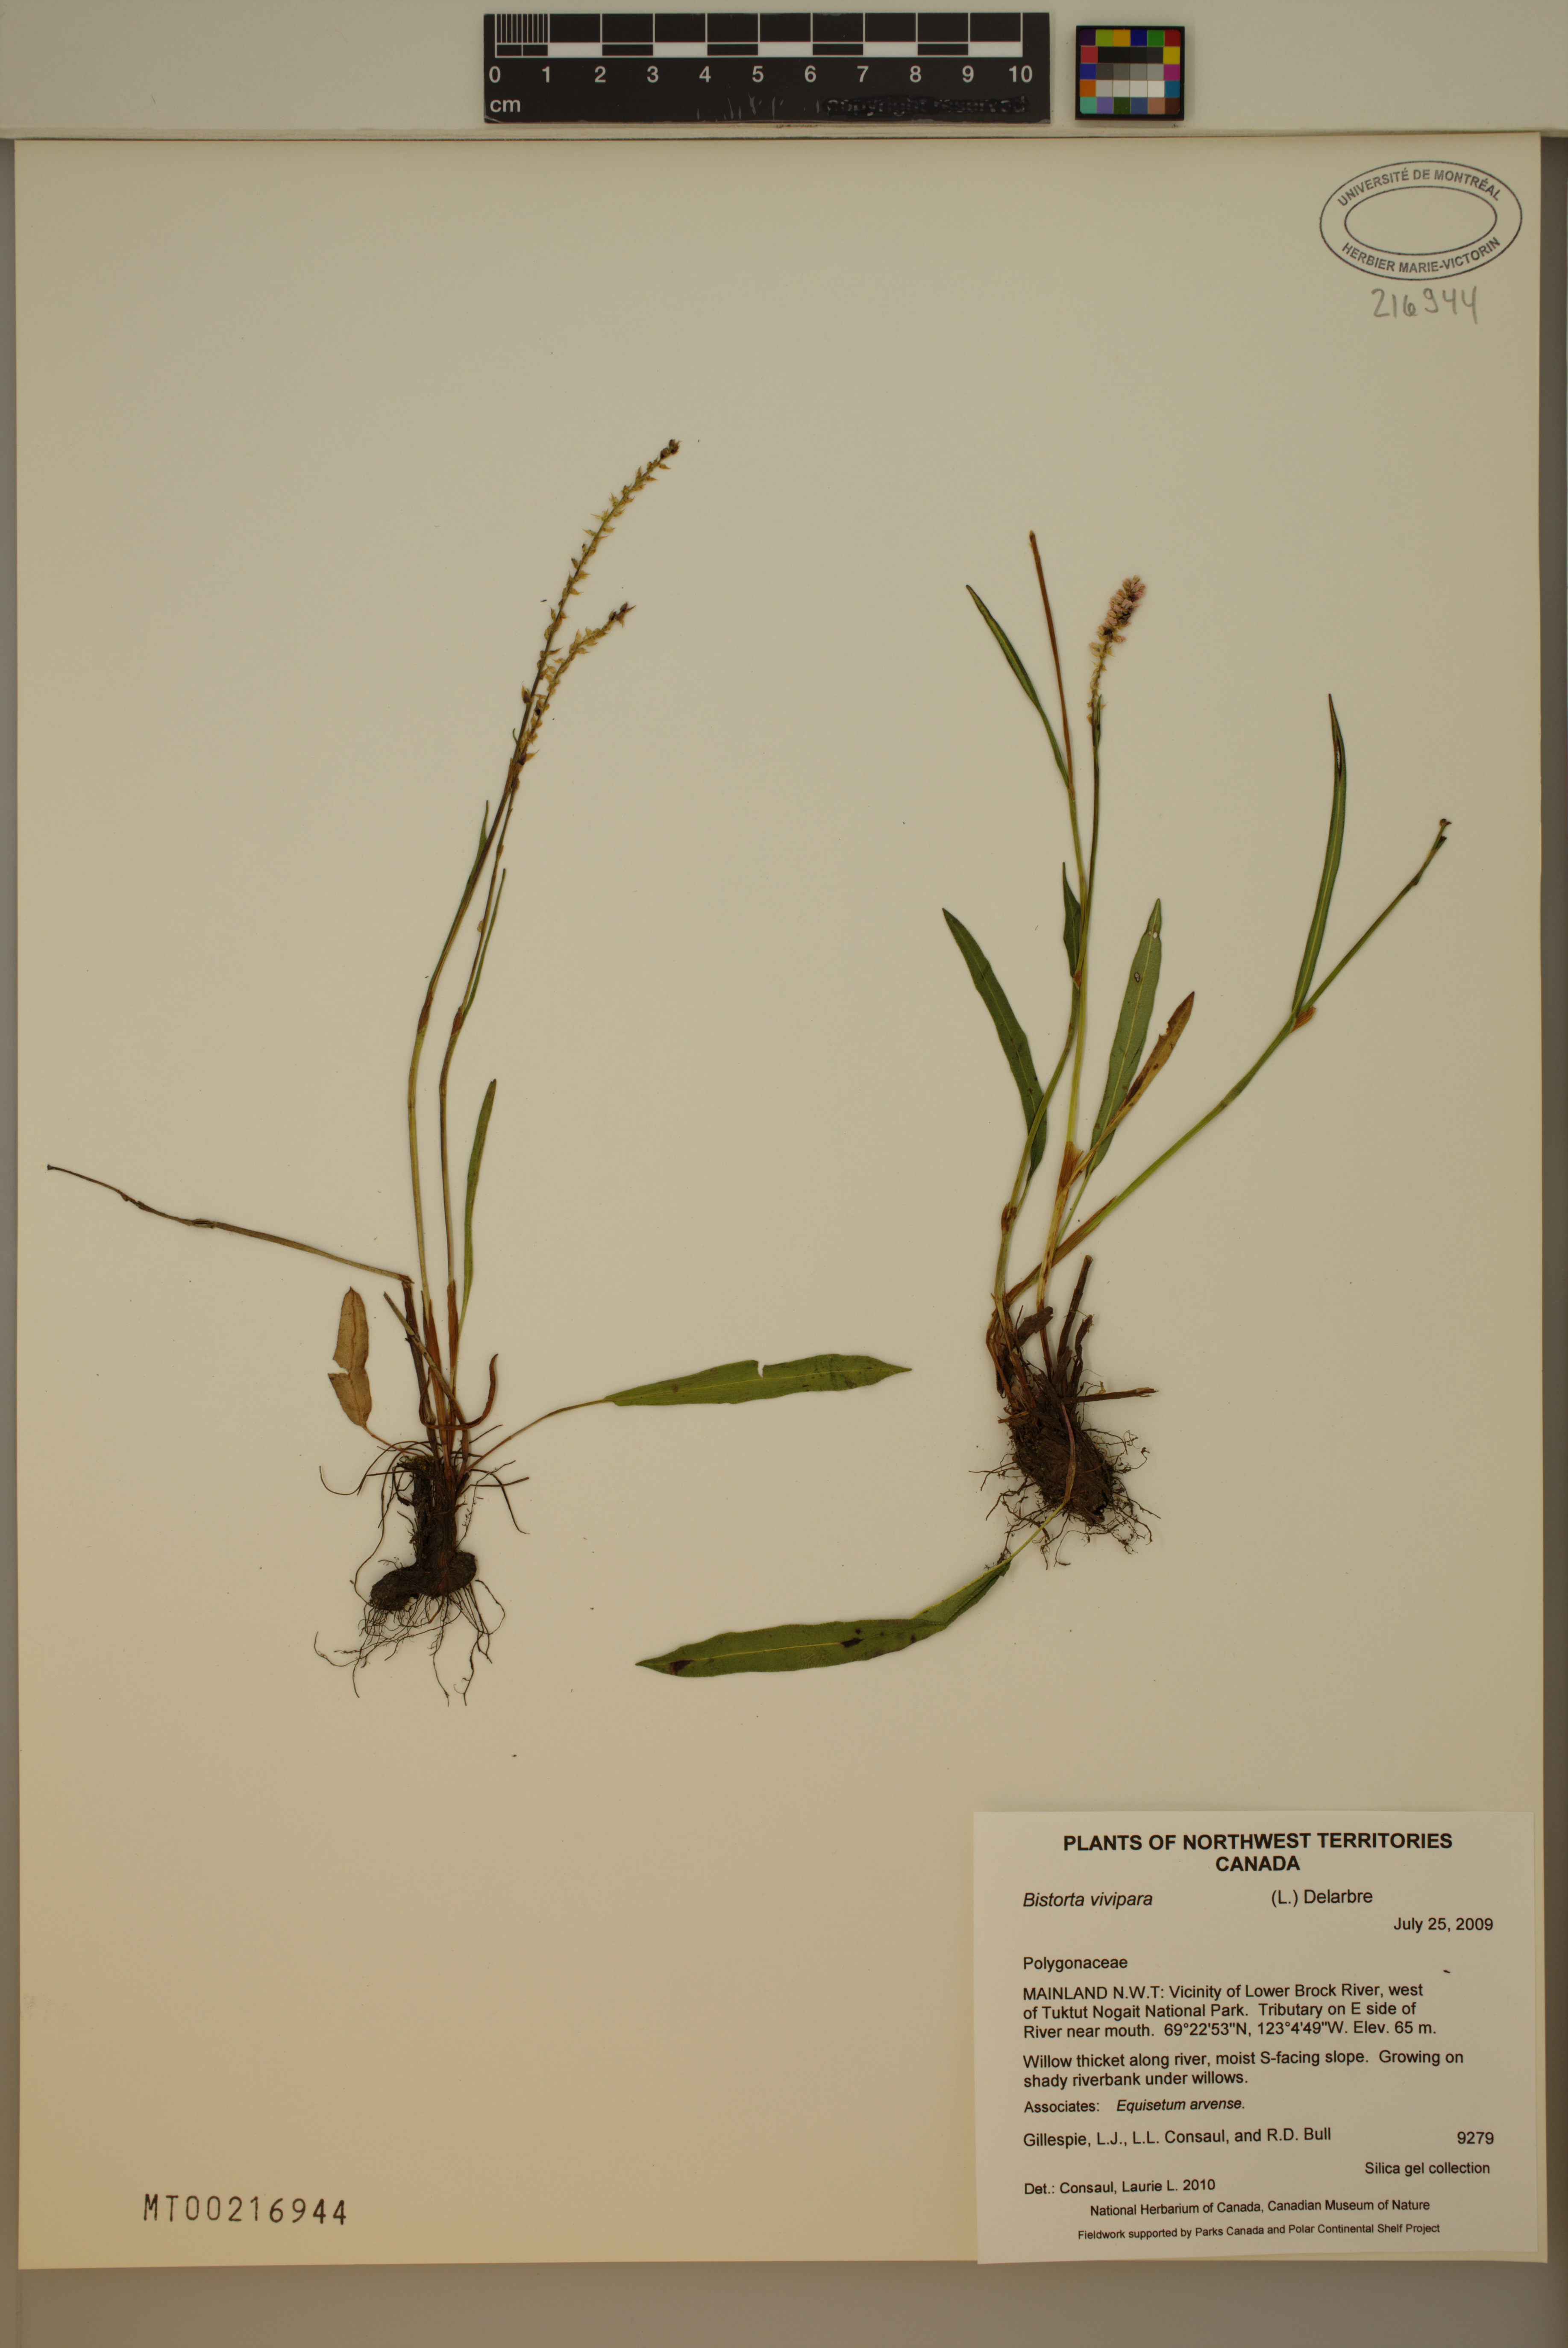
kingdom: Plantae
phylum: Tracheophyta
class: Magnoliopsida
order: Caryophyllales
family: Polygonaceae
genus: Bistorta
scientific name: Bistorta vivipara
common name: Alpine bistort
